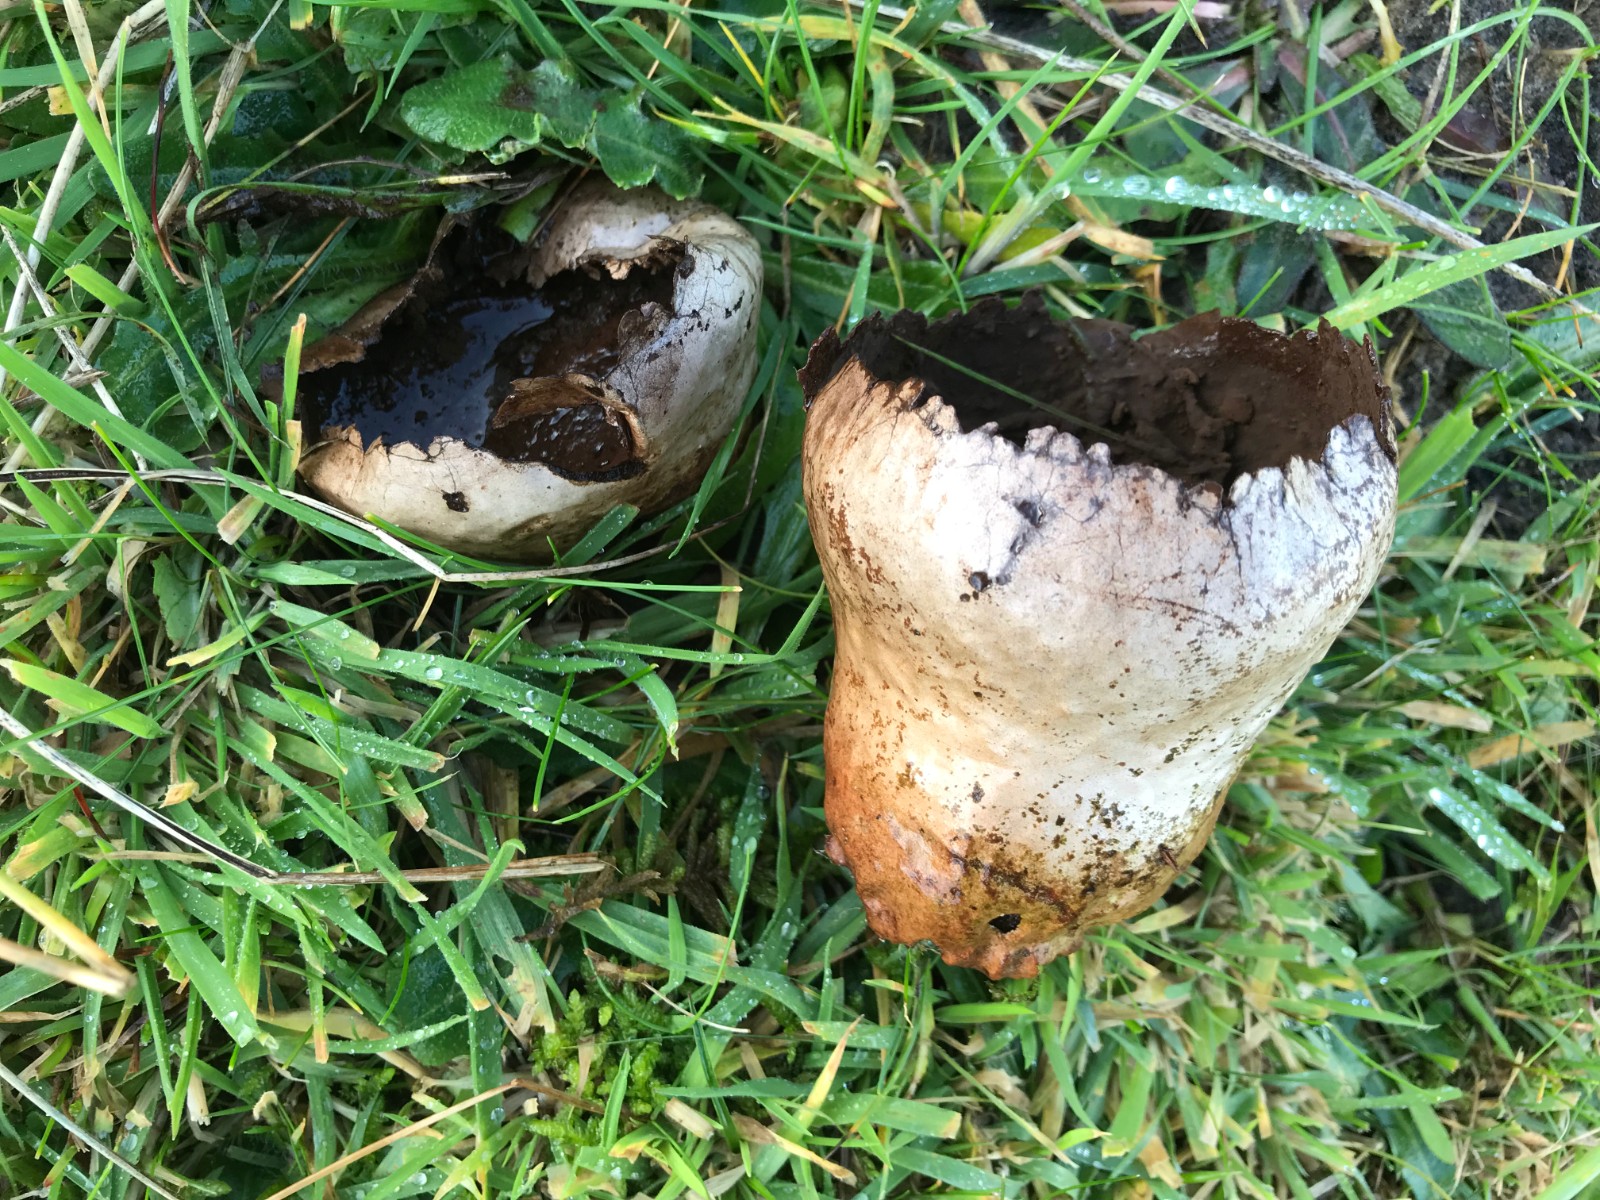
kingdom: Fungi
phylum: Basidiomycota
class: Agaricomycetes
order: Agaricales
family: Lycoperdaceae
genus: Bovistella
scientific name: Bovistella utriformis
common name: skællet støvbold
